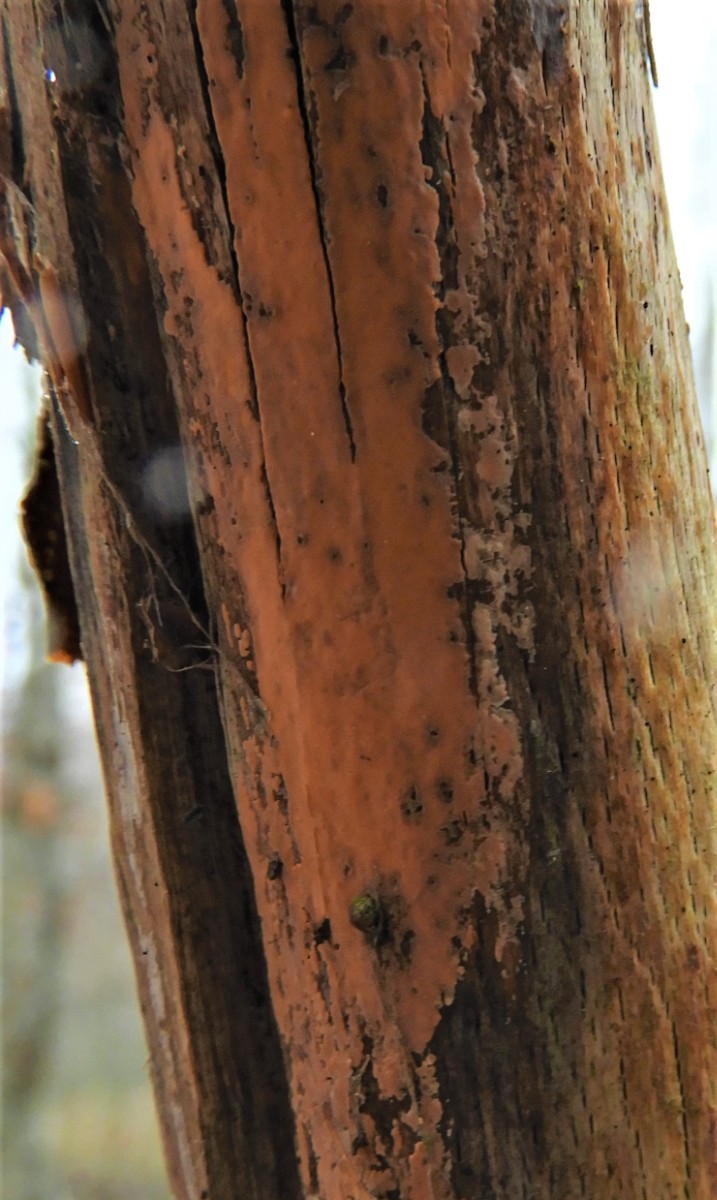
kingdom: Fungi
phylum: Basidiomycota
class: Agaricomycetes
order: Russulales
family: Peniophoraceae
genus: Peniophora
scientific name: Peniophora incarnata
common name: laksefarvet voksskind
